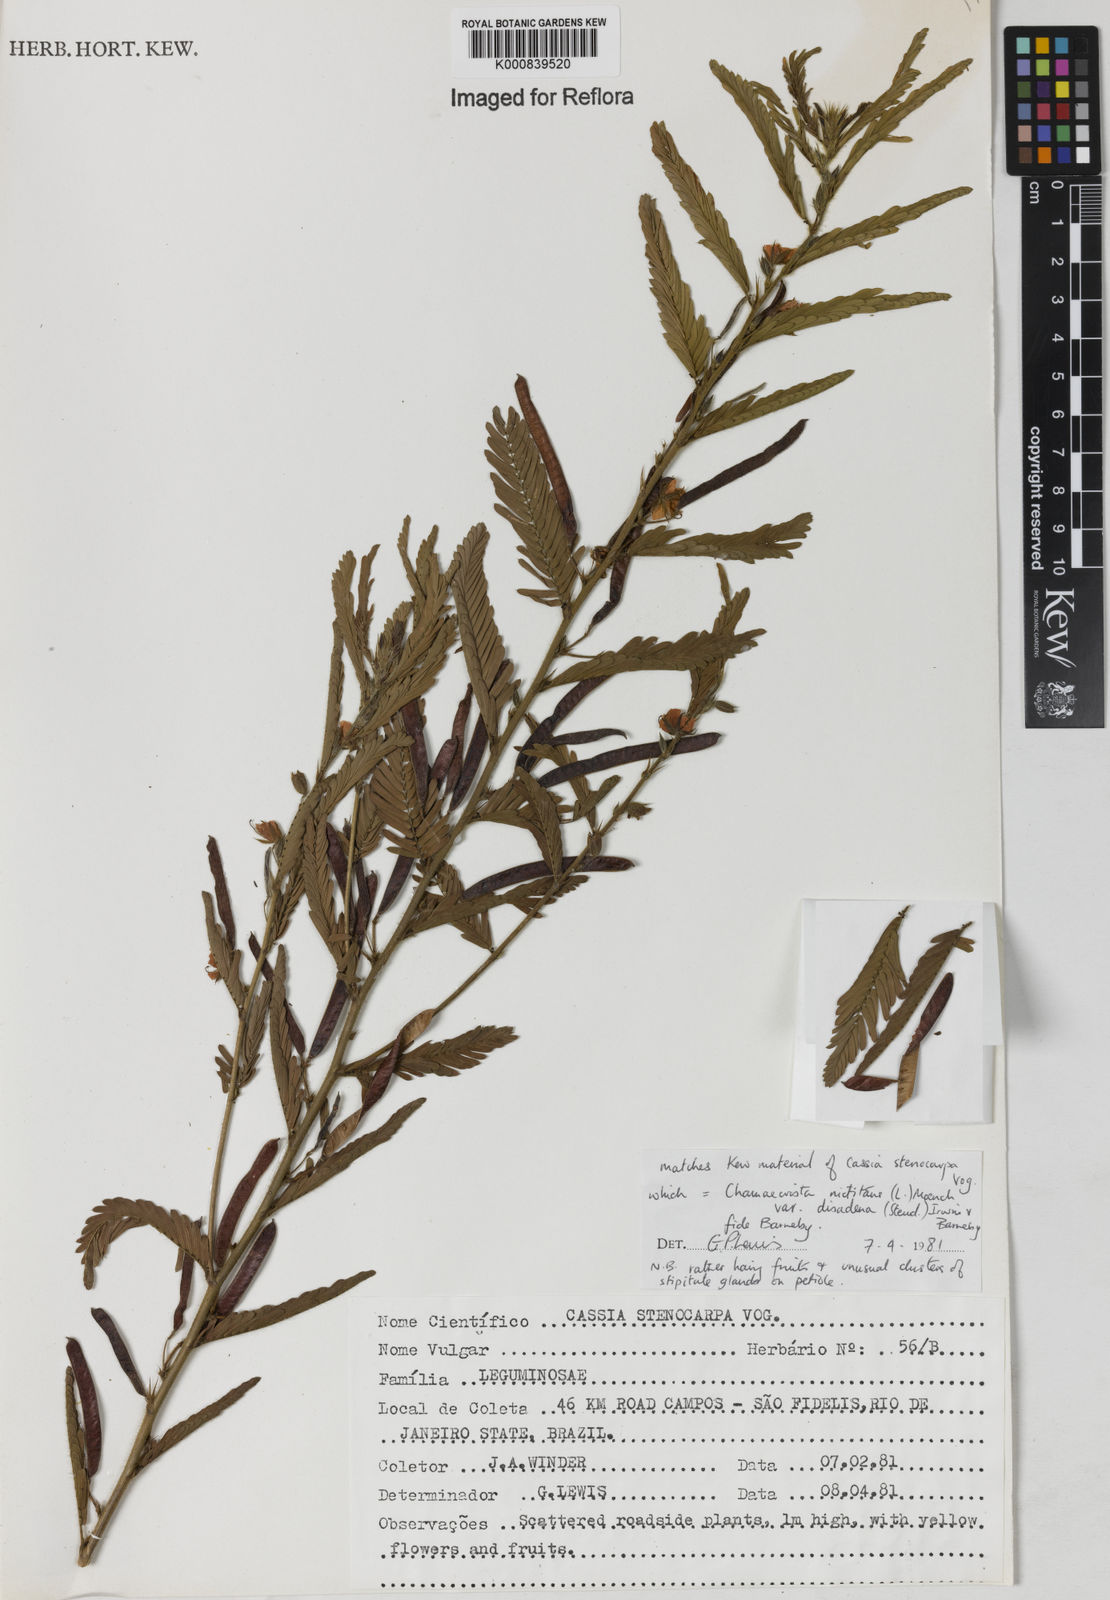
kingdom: Plantae
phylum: Tracheophyta
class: Magnoliopsida
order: Fabales
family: Fabaceae
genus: Chamaecrista
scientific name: Chamaecrista nictitans
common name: Sensitive cassia
